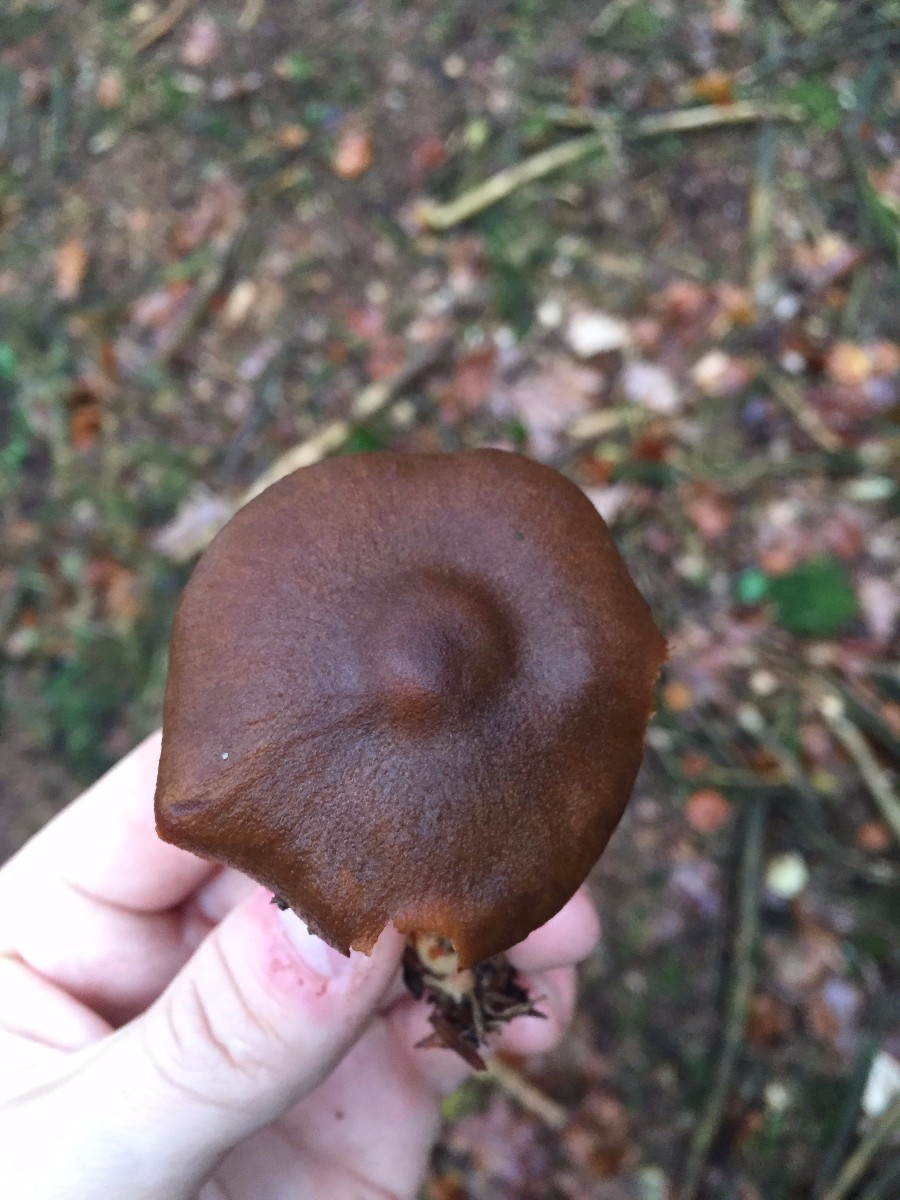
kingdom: Fungi
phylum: Basidiomycota
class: Agaricomycetes
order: Agaricales
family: Cortinariaceae
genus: Cortinarius
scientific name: Cortinarius
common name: cinnoberbladet slørhat
